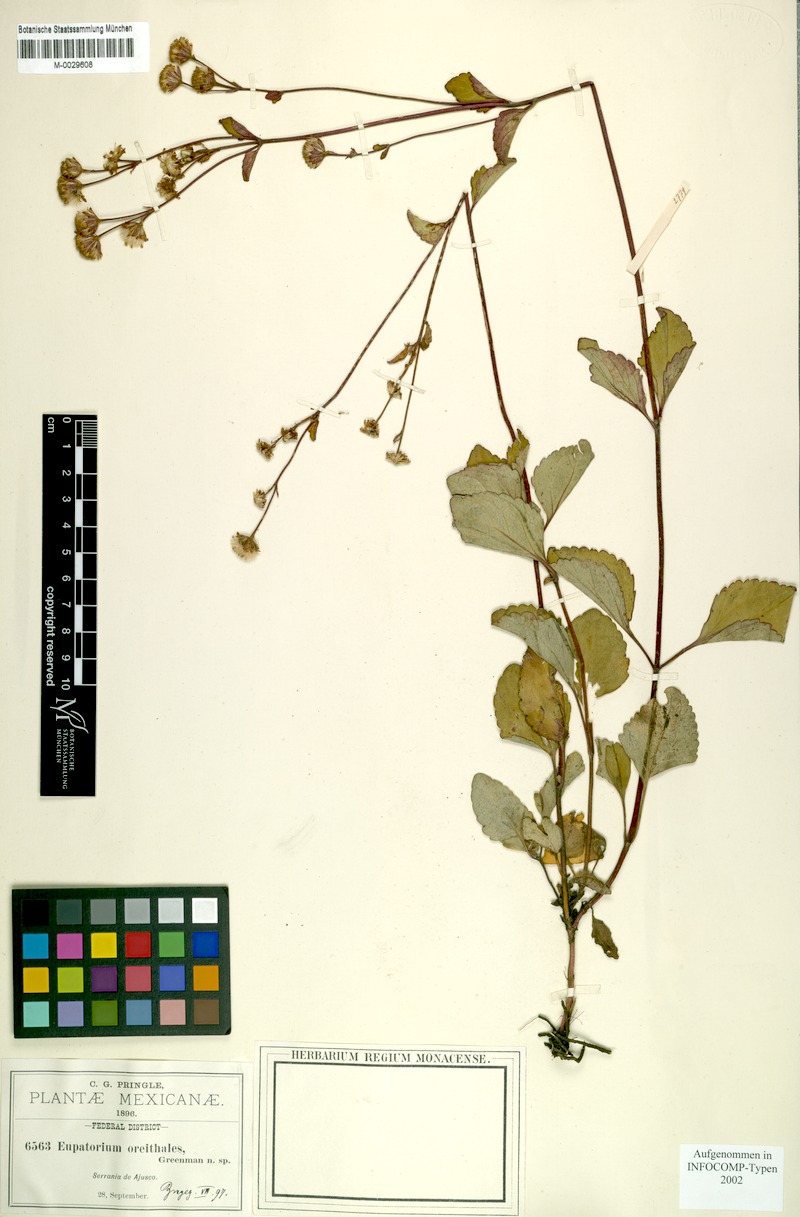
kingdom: Plantae
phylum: Tracheophyta
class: Magnoliopsida
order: Asterales
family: Asteraceae
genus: Ageratina
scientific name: Ageratina oreithales
